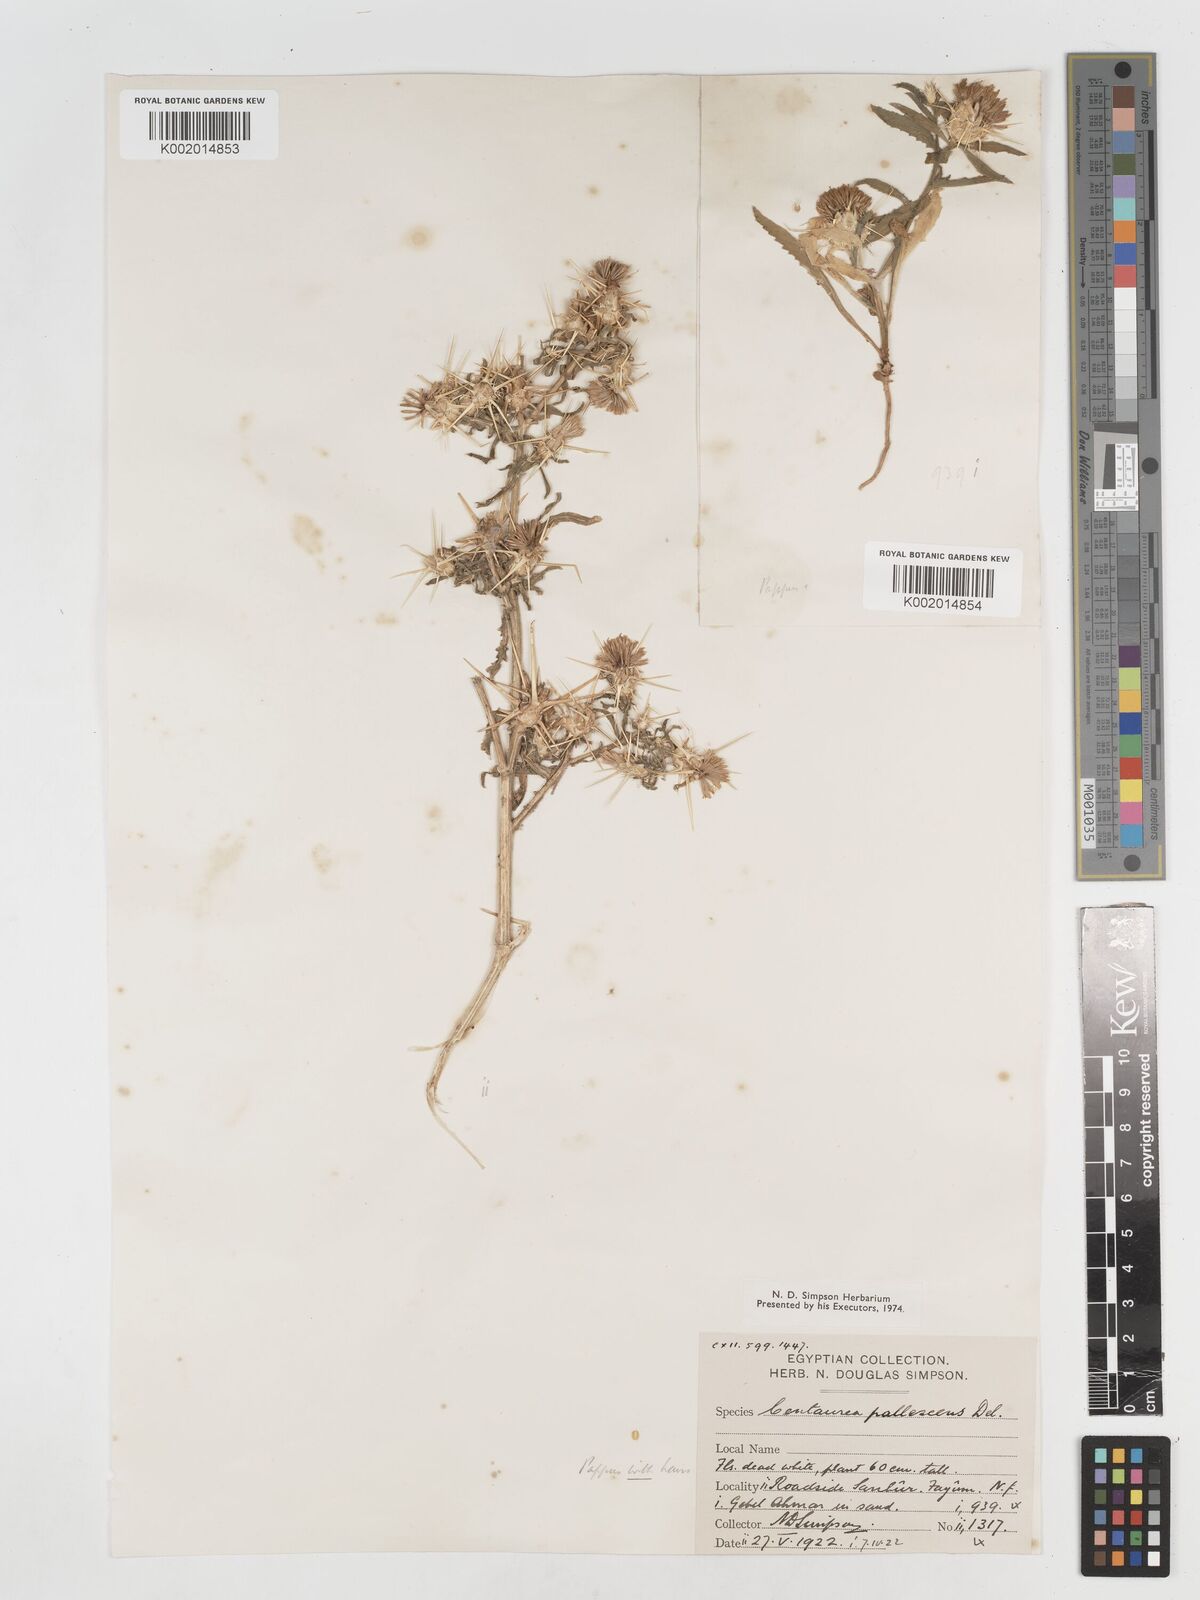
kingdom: Plantae
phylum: Tracheophyta
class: Magnoliopsida
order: Asterales
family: Asteraceae
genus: Centaurea
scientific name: Centaurea pallescens
